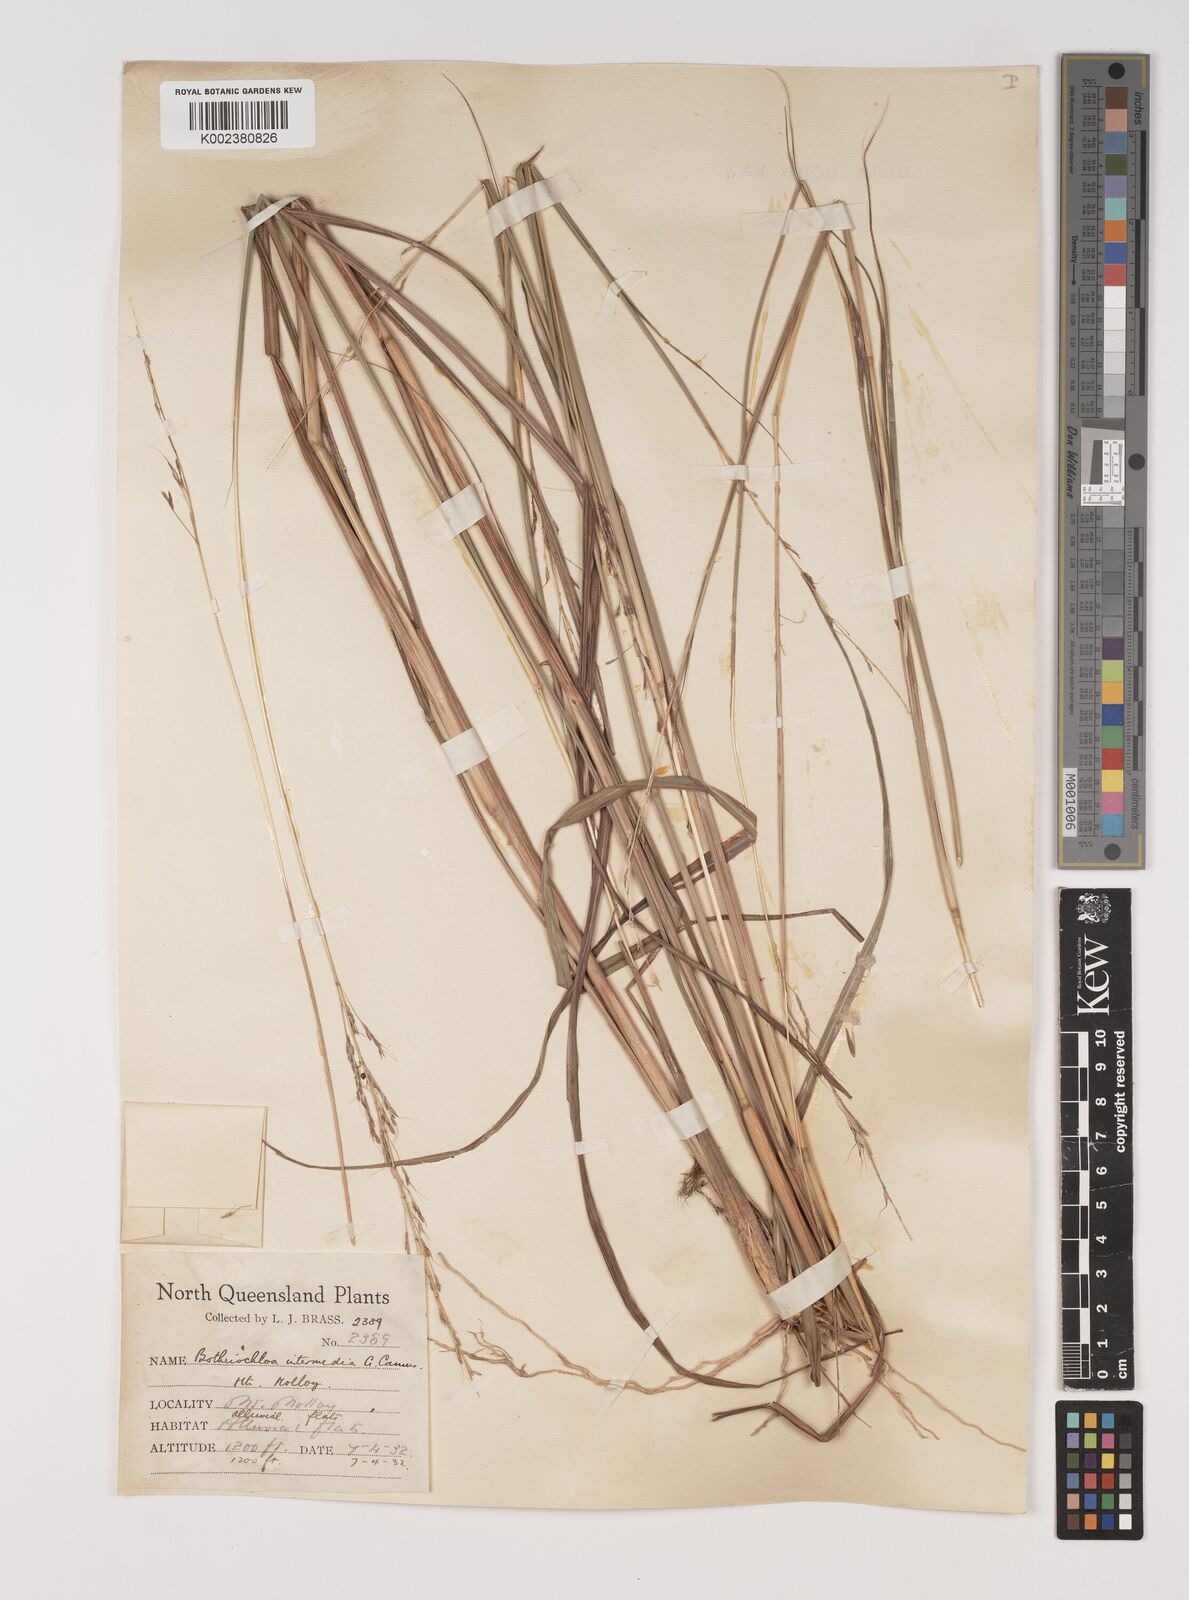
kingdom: Plantae
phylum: Tracheophyta
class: Liliopsida
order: Poales
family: Poaceae
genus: Bothriochloa
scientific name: Bothriochloa bladhii
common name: Caucasian bluestem
